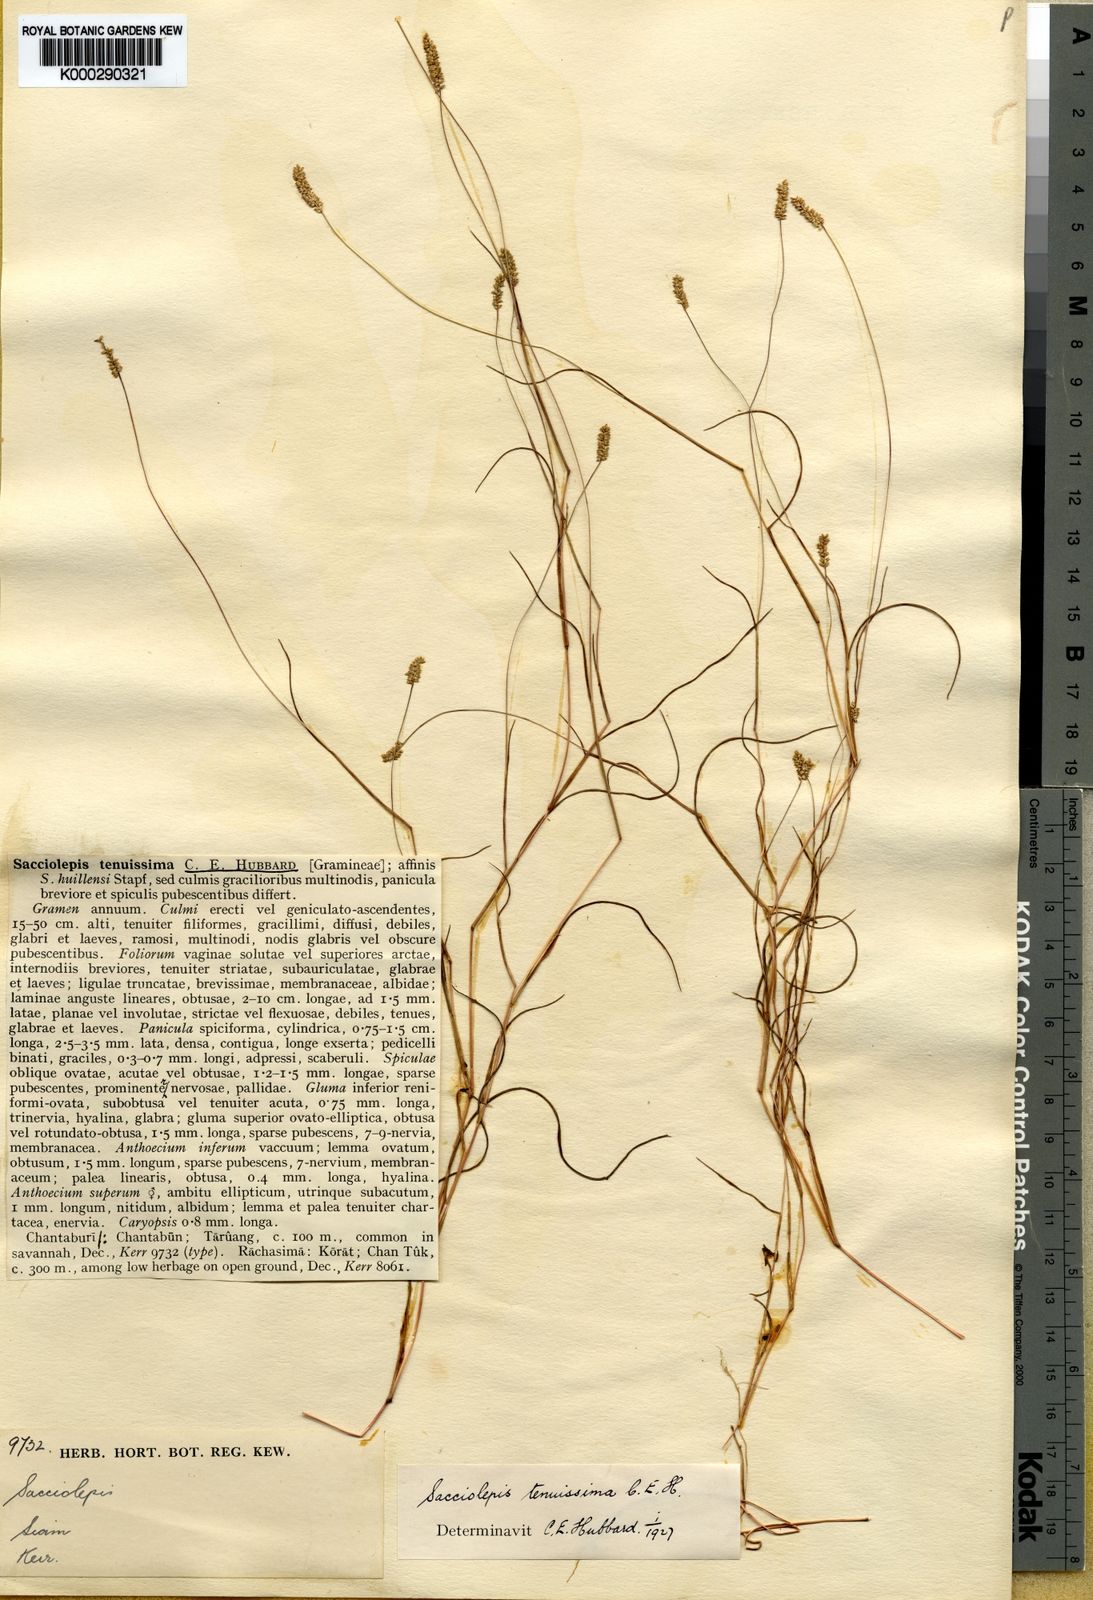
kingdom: Plantae
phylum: Tracheophyta
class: Liliopsida
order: Poales
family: Poaceae
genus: Sacciolepis
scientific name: Sacciolepis tenuissima
